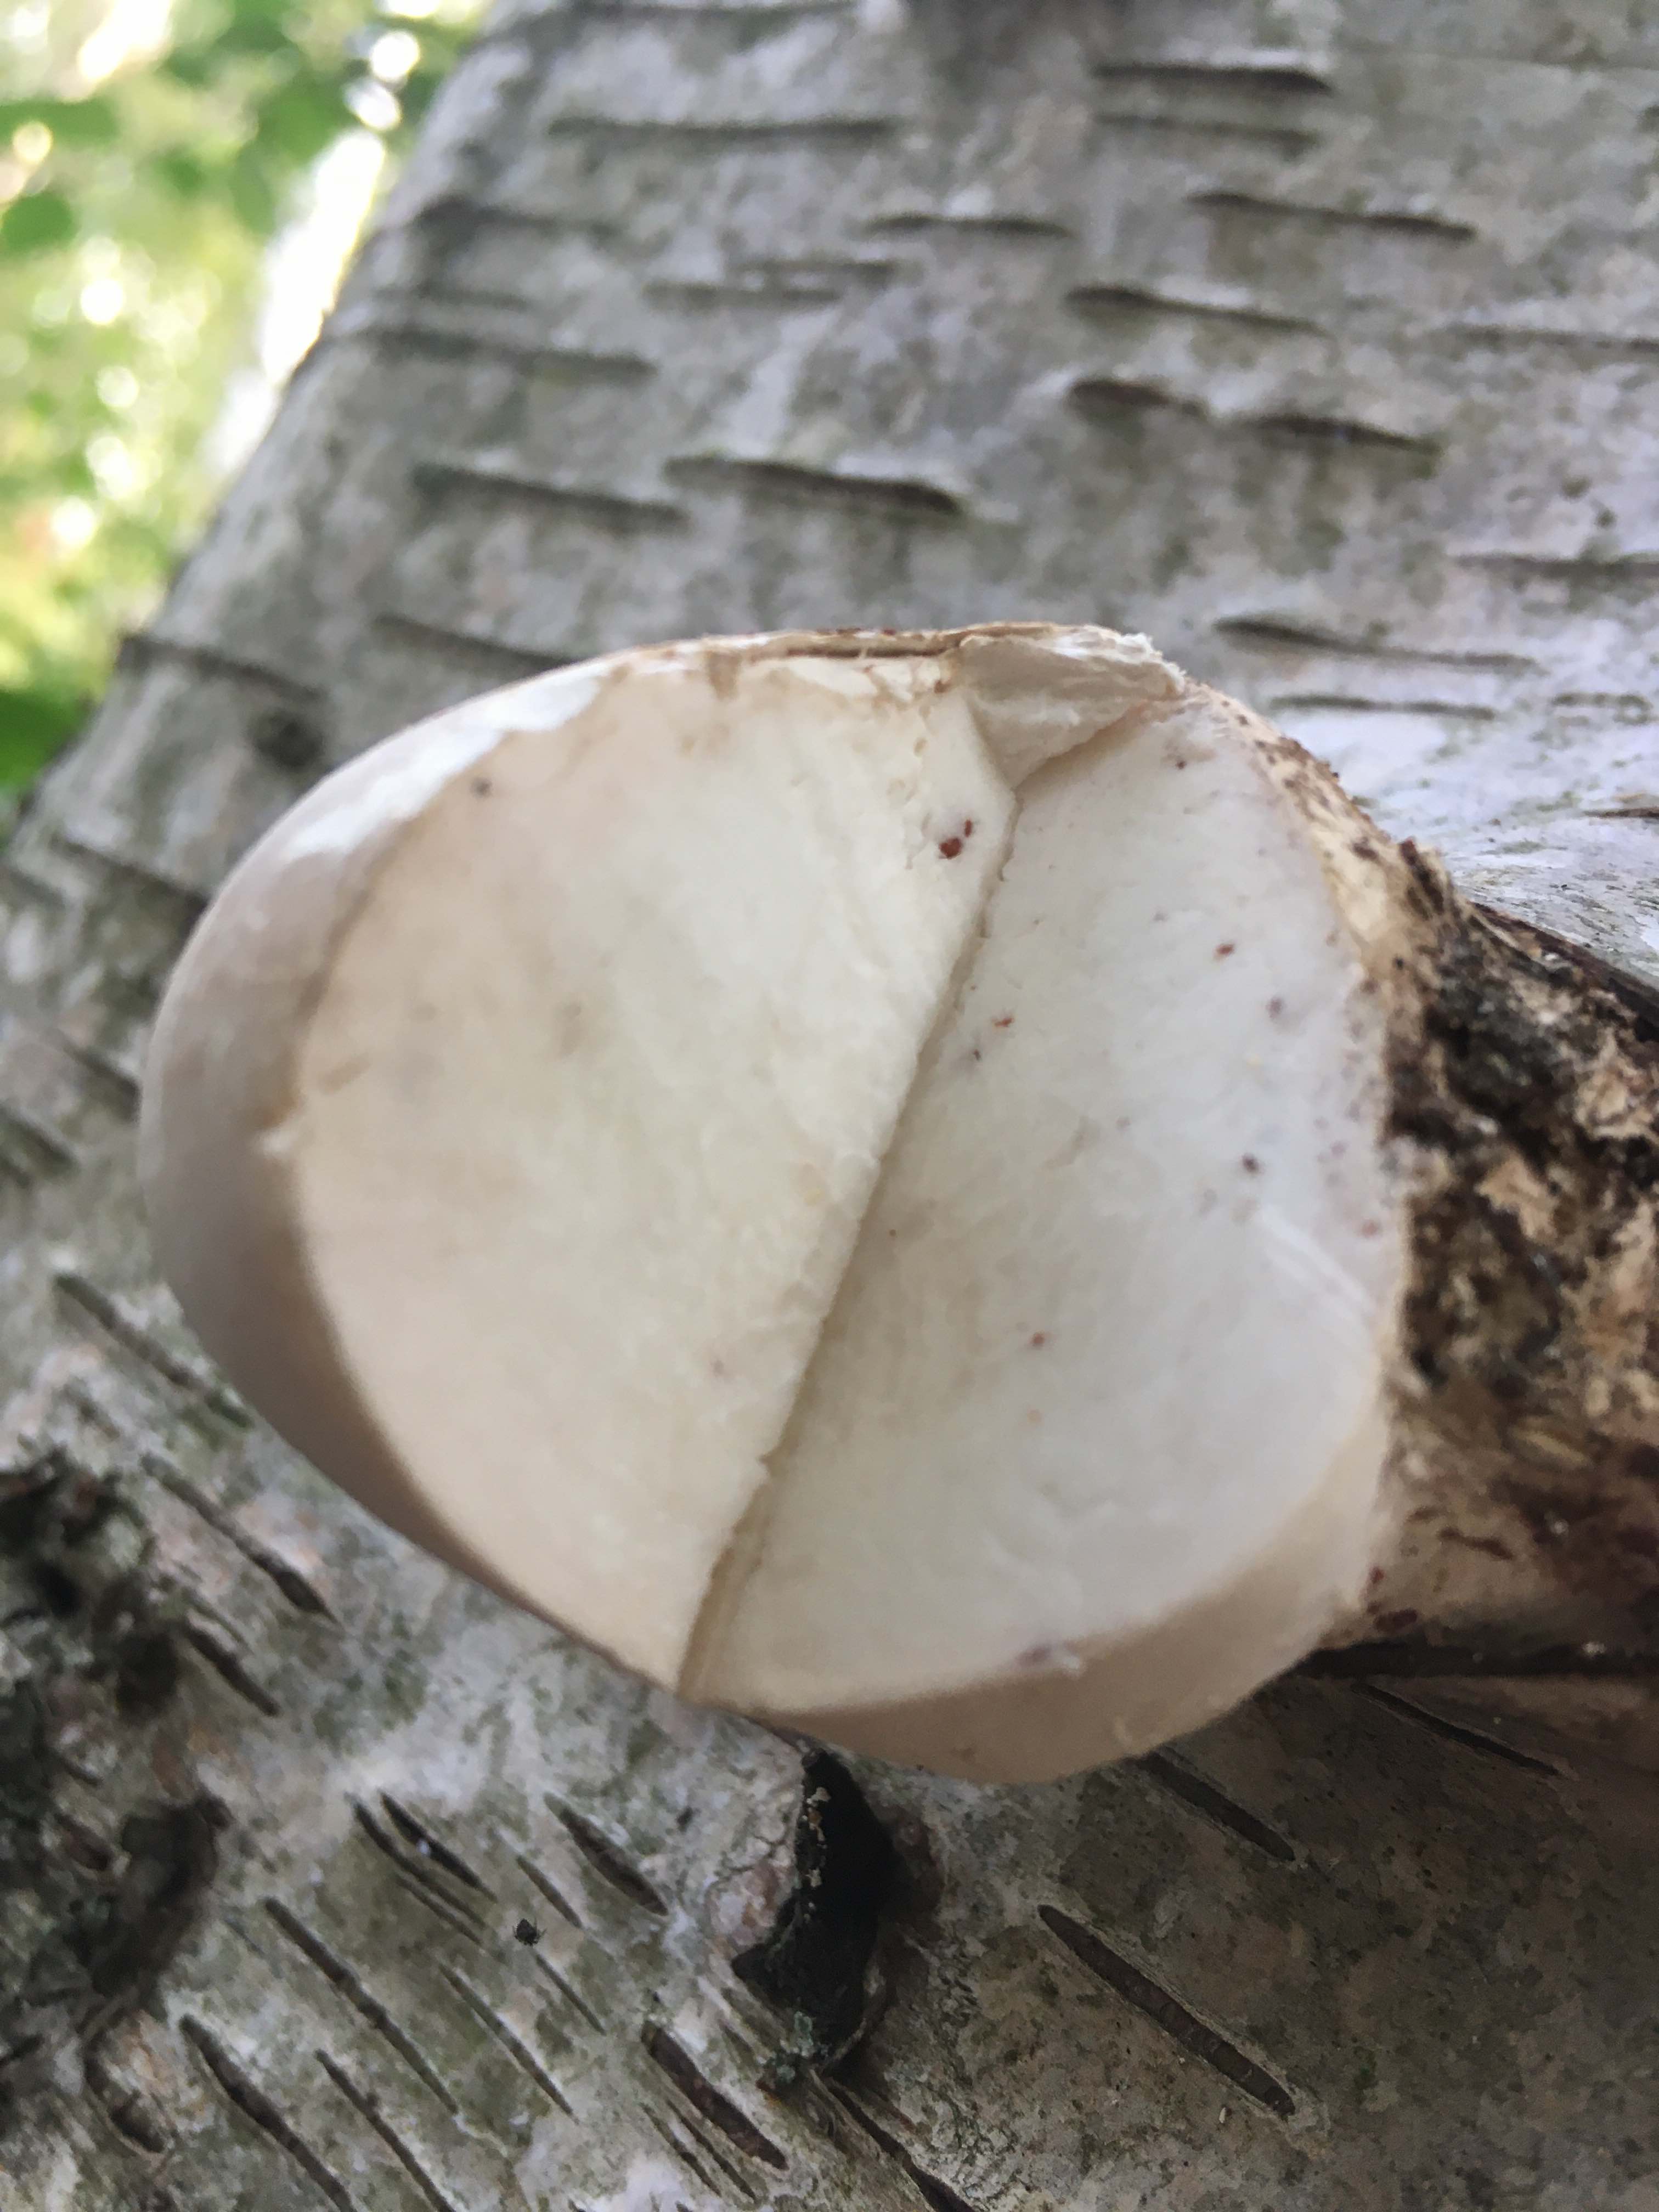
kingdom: Fungi
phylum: Basidiomycota
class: Agaricomycetes
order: Polyporales
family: Fomitopsidaceae
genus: Fomitopsis
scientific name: Fomitopsis betulina
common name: birkeporesvamp
